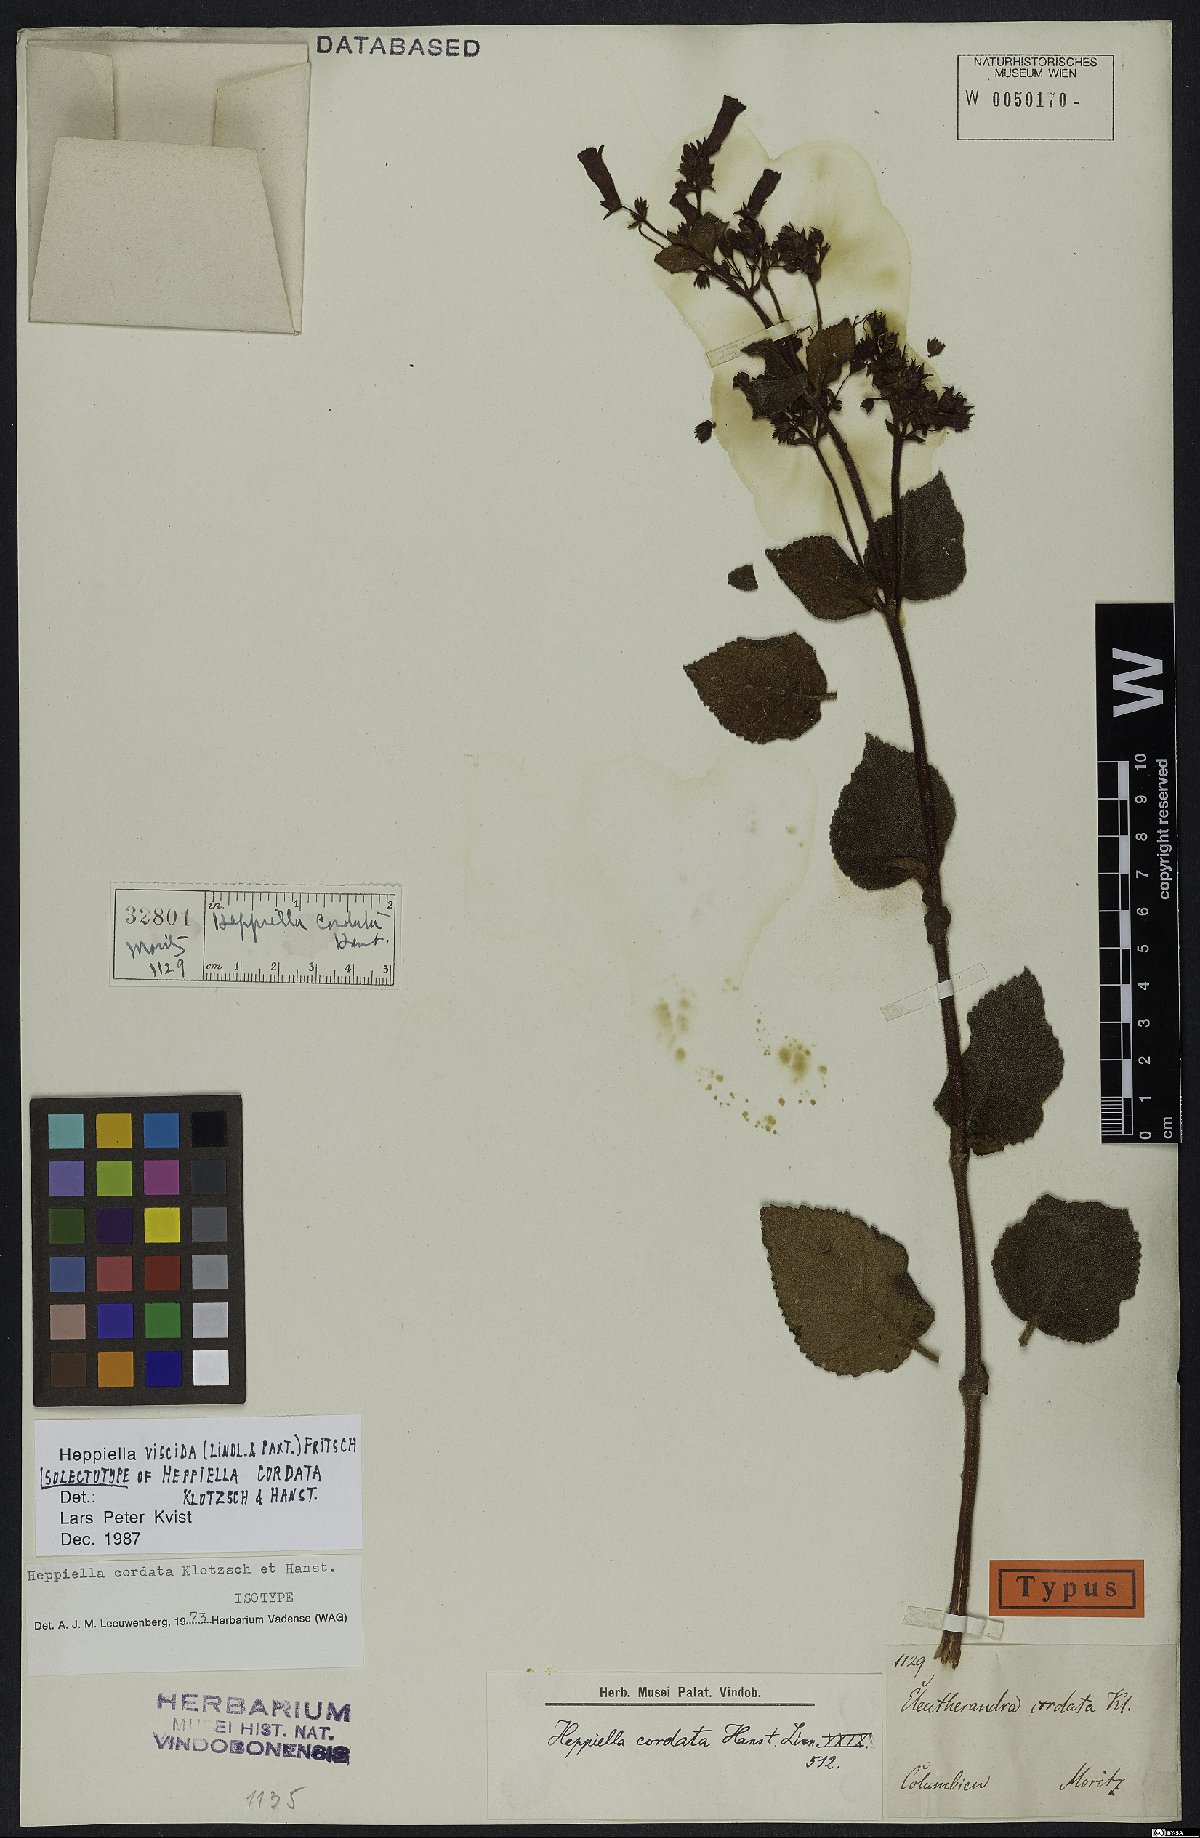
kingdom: Plantae
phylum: Tracheophyta
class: Magnoliopsida
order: Lamiales
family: Gesneriaceae
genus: Heppiella
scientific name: Heppiella viscida
